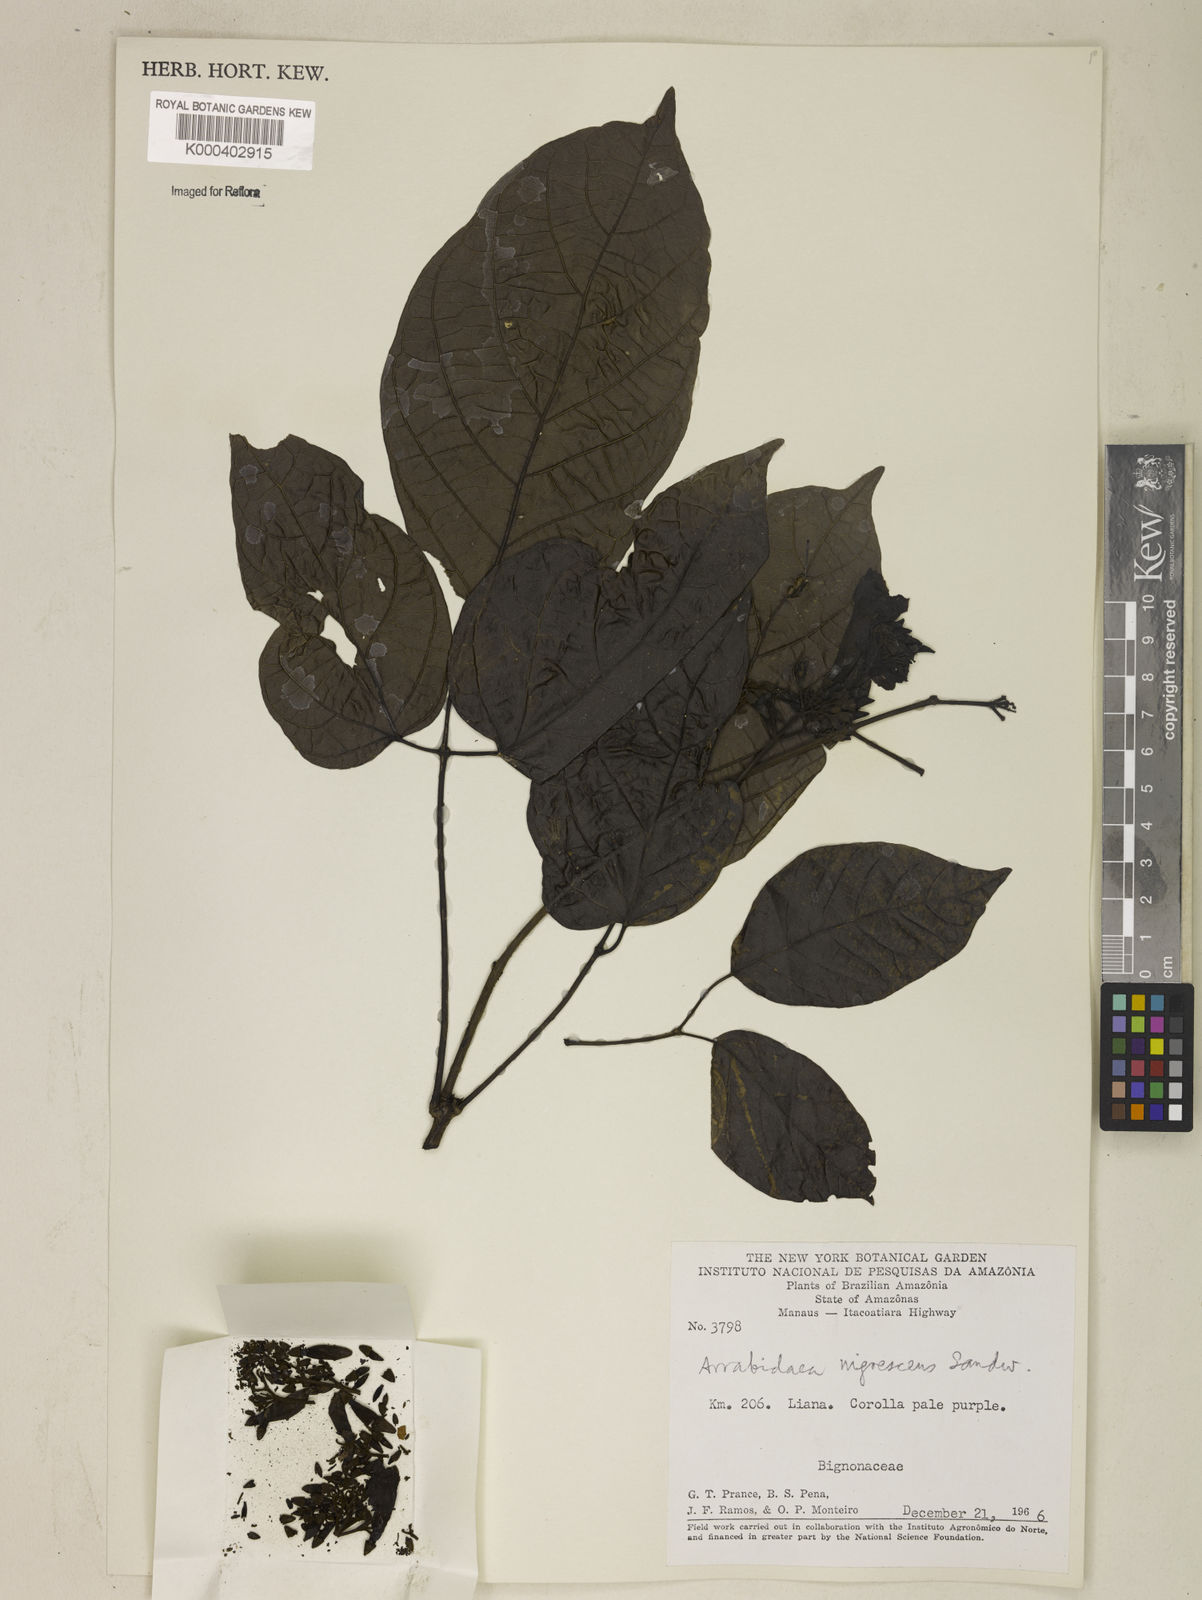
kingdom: Plantae
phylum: Tracheophyta
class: Magnoliopsida
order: Lamiales
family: Bignoniaceae
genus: Fridericia
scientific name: Fridericia nigrescens
